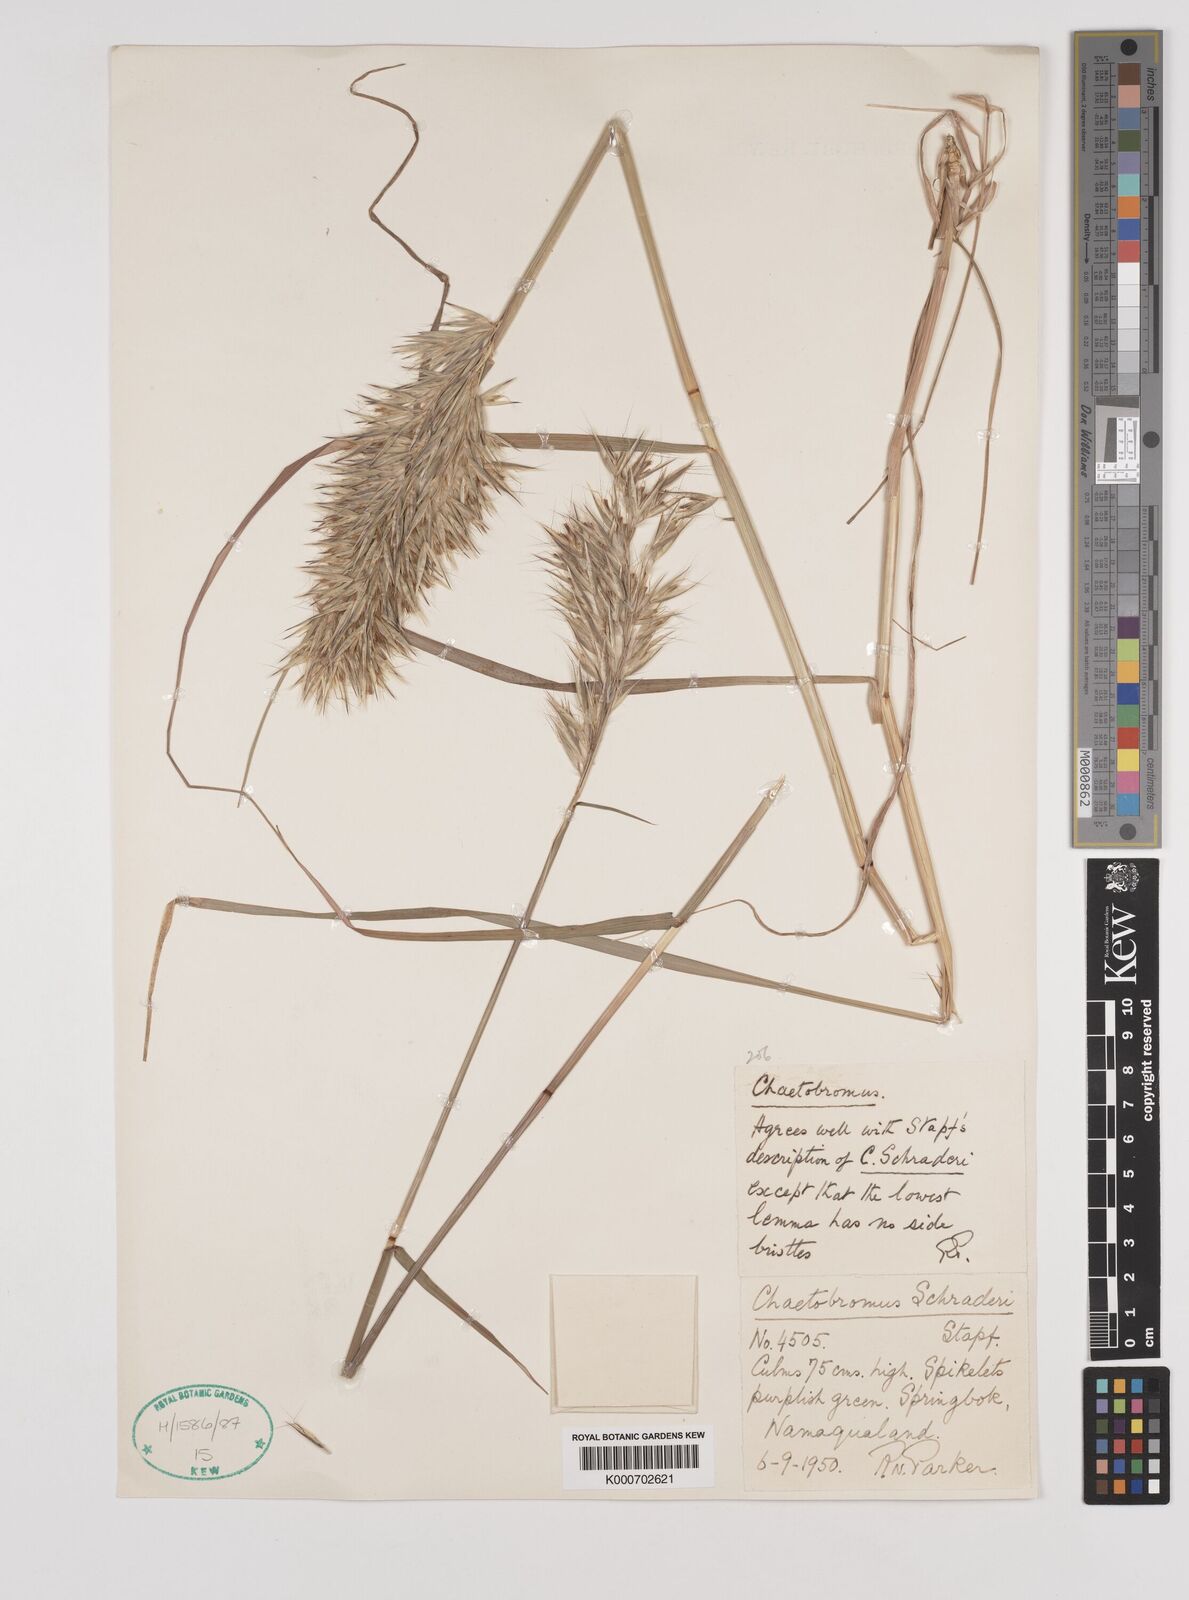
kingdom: Plantae
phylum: Tracheophyta
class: Liliopsida
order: Poales
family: Poaceae
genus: Chaetobromus
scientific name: Chaetobromus involucratus
